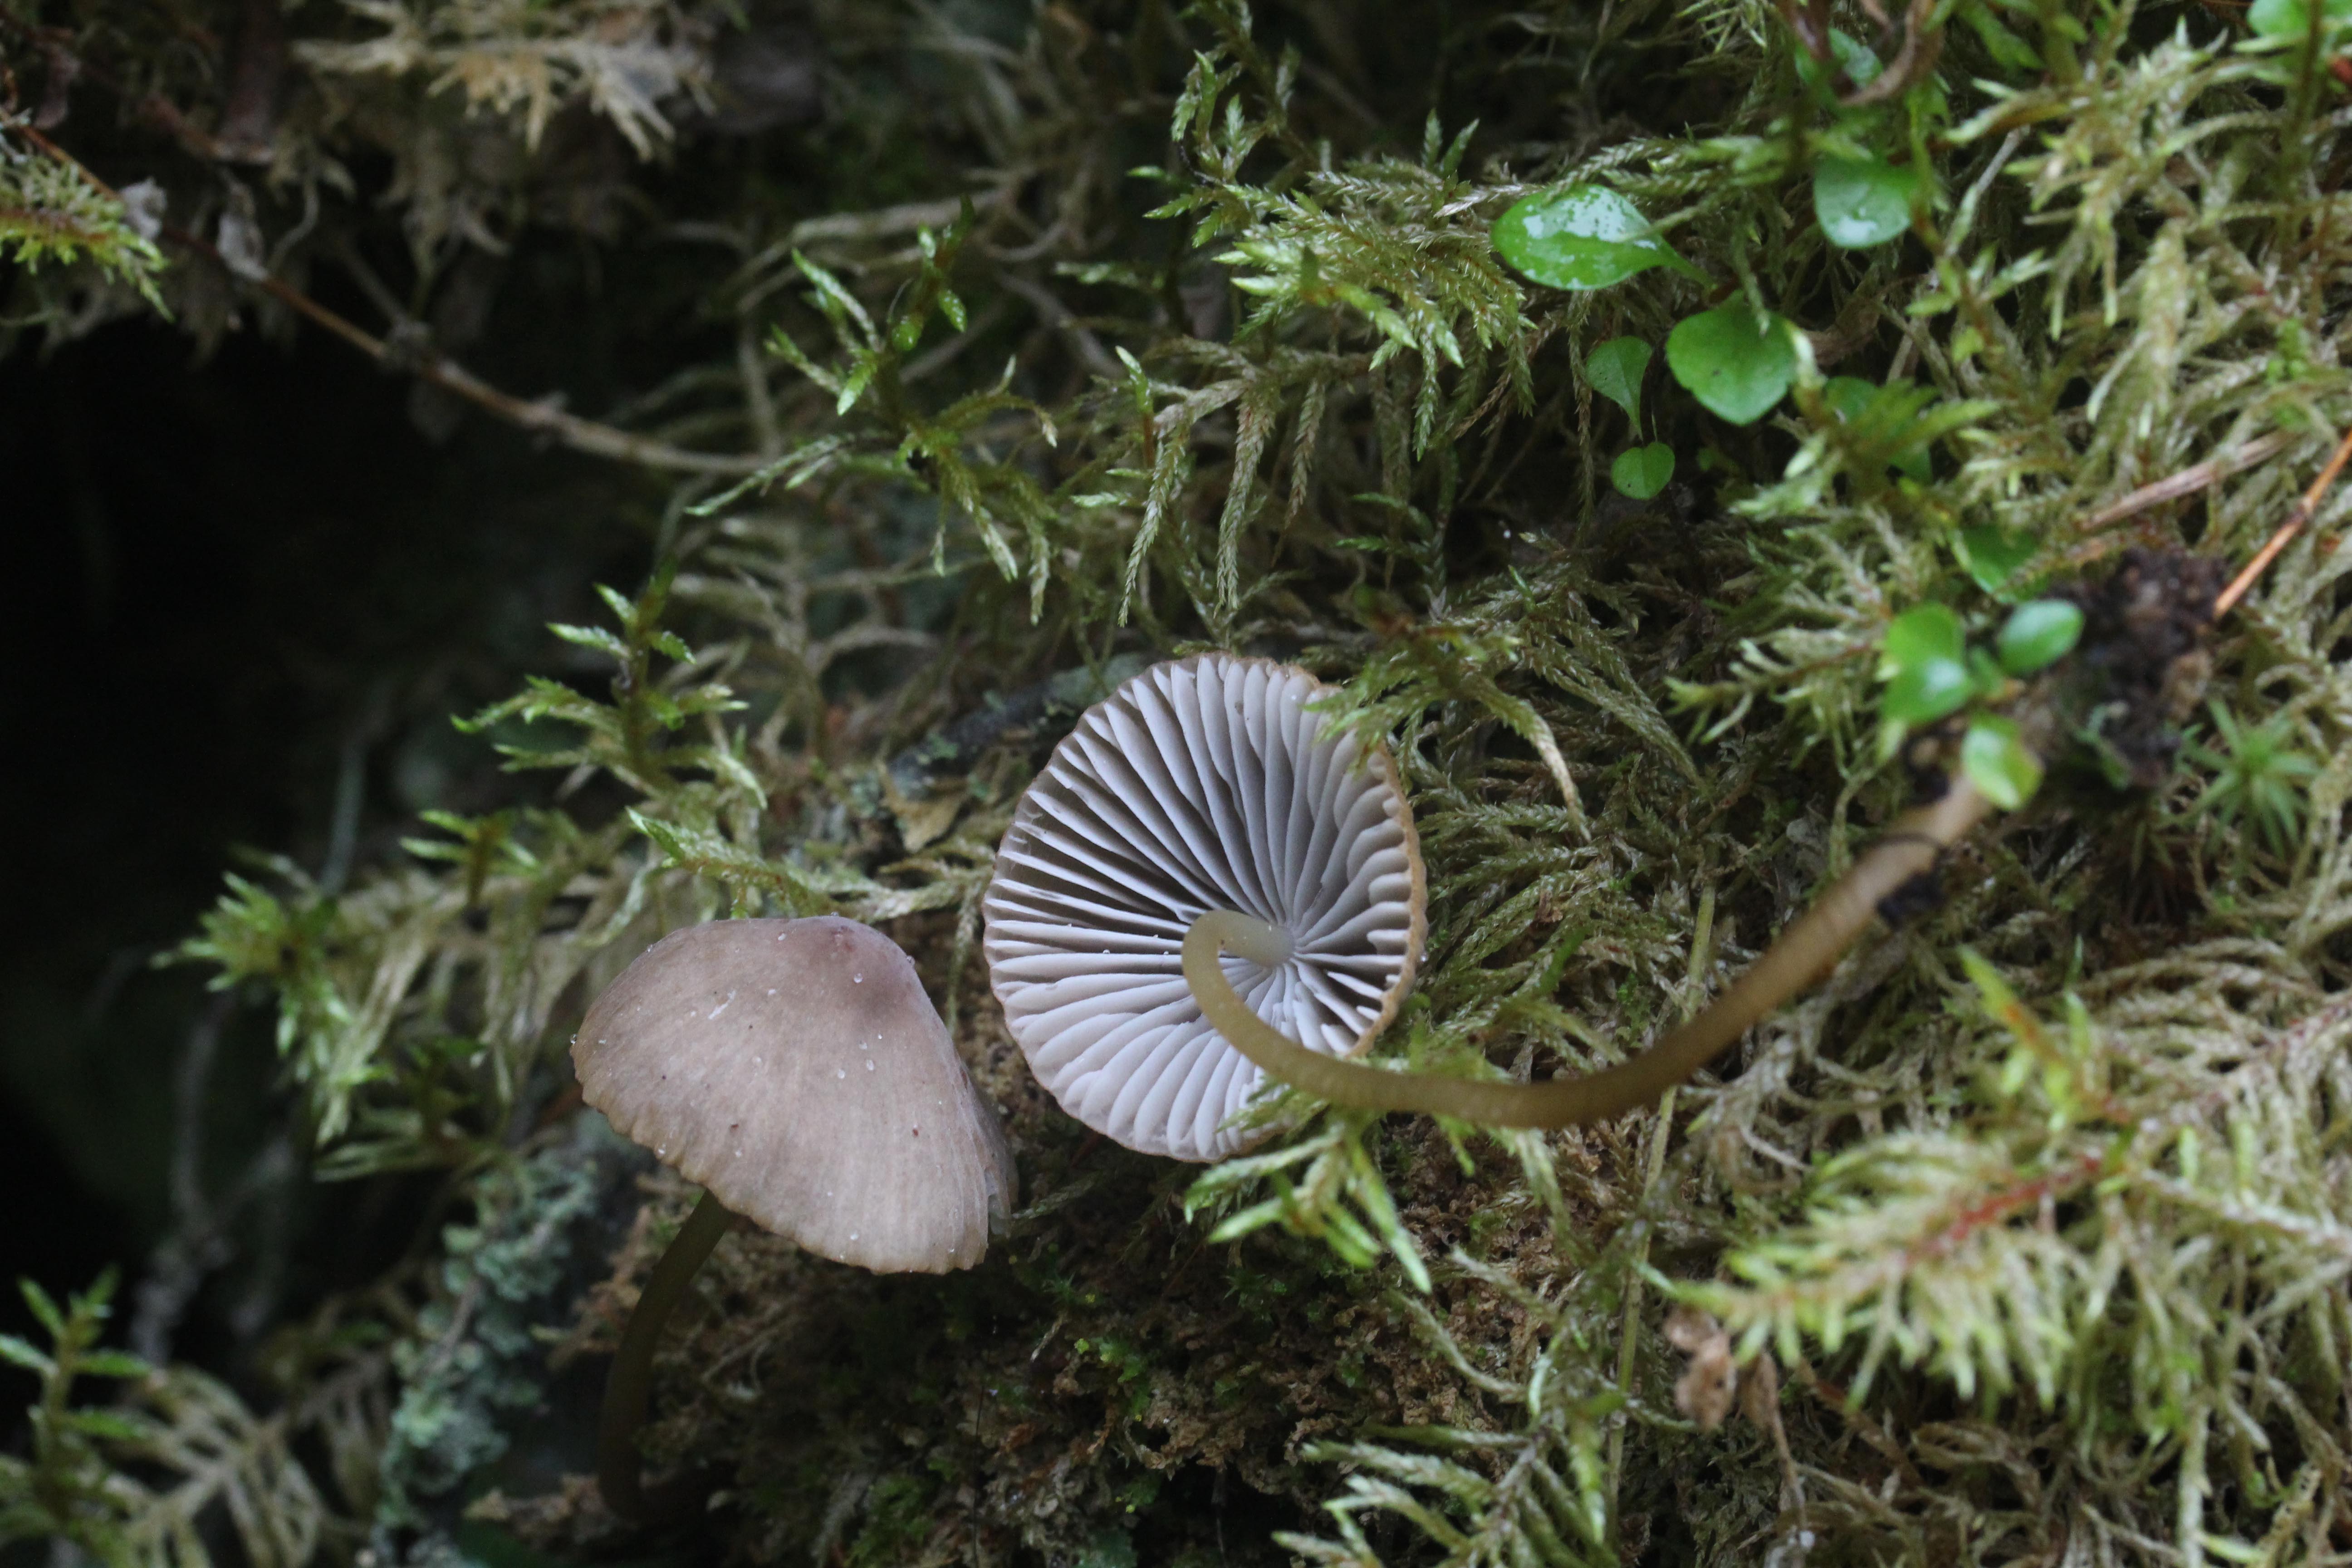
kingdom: Fungi
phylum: Basidiomycota
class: Agaricomycetes
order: Agaricales
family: Mycenaceae
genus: Mycena
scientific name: Mycena viridimarginata
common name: Olive edge bonnet
